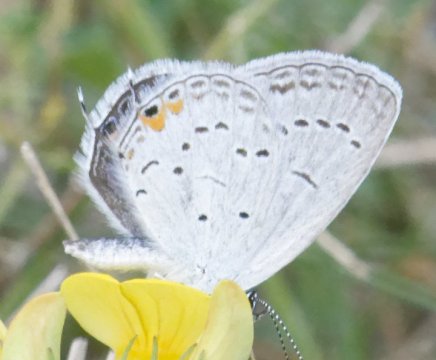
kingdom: Animalia
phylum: Arthropoda
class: Insecta
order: Lepidoptera
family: Lycaenidae
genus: Elkalyce
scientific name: Elkalyce comyntas
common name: Eastern Tailed-Blue
